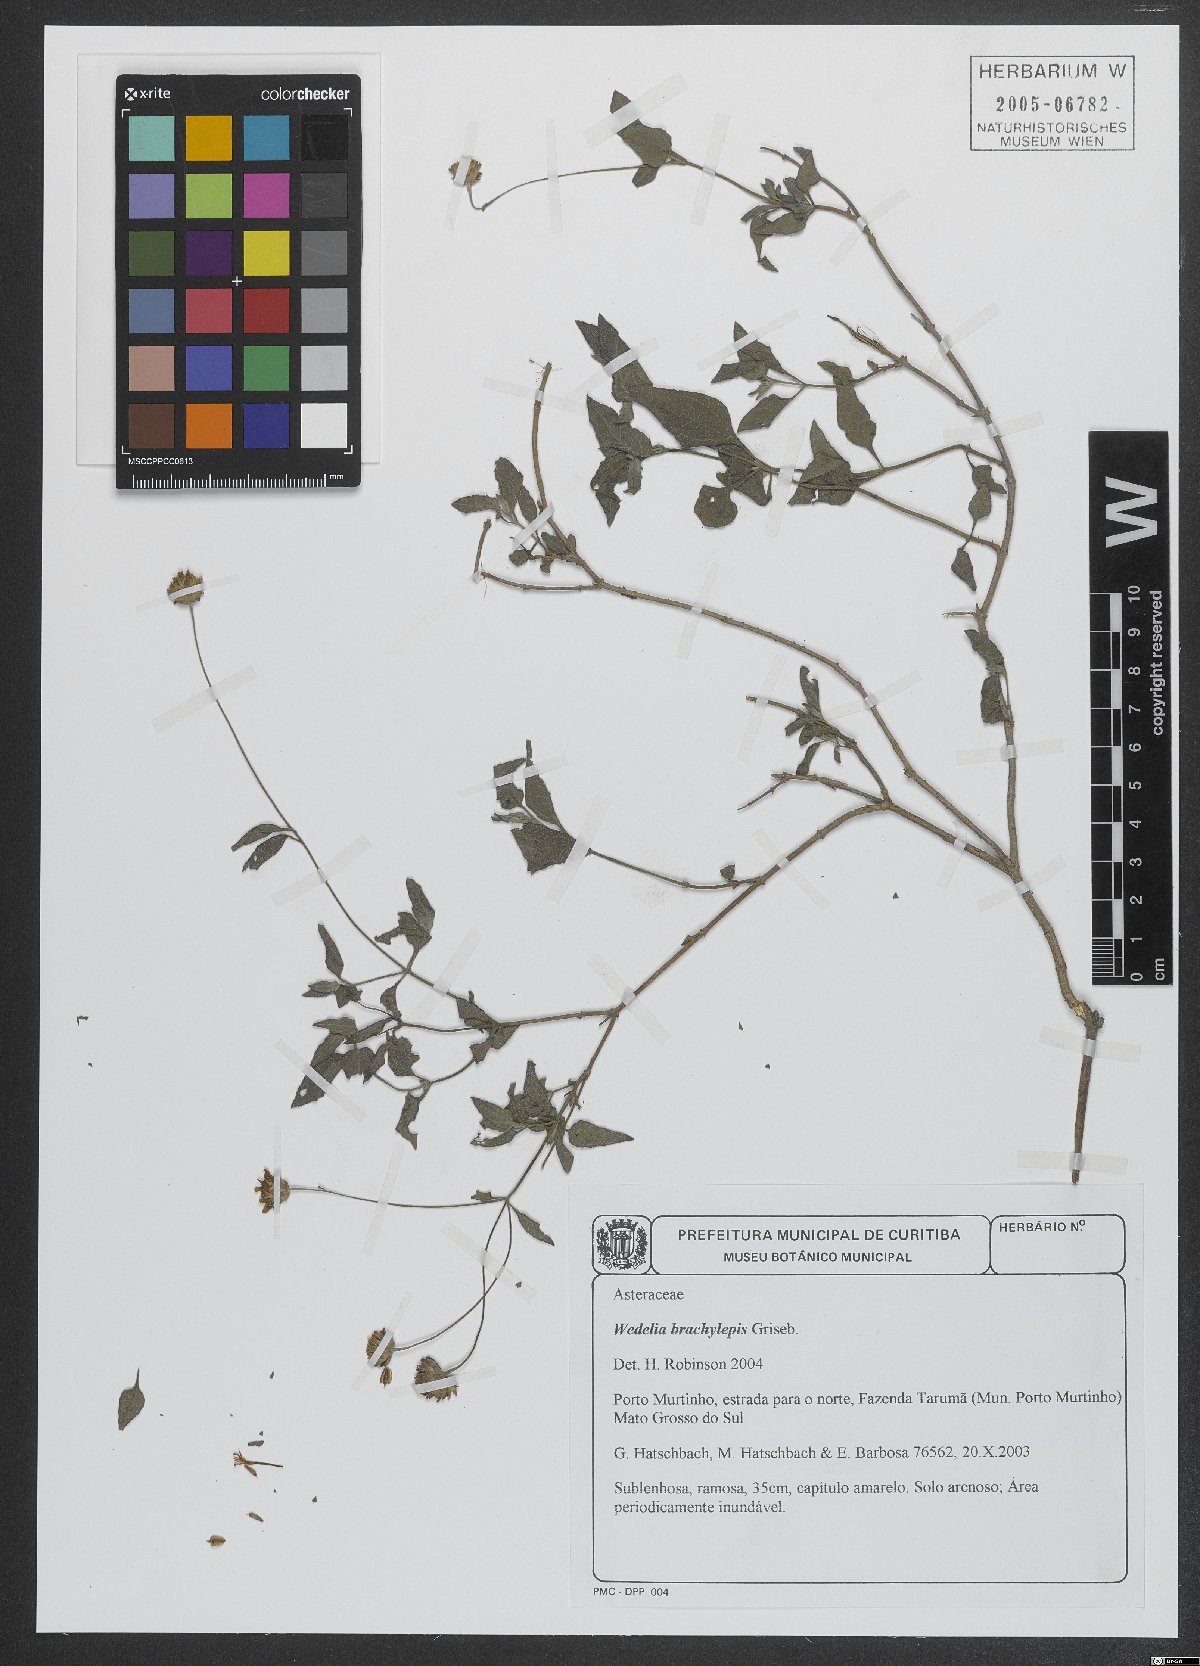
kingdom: Plantae
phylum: Tracheophyta
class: Magnoliopsida
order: Asterales
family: Asteraceae
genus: Zexmenia
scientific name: Zexmenia brachylepis
